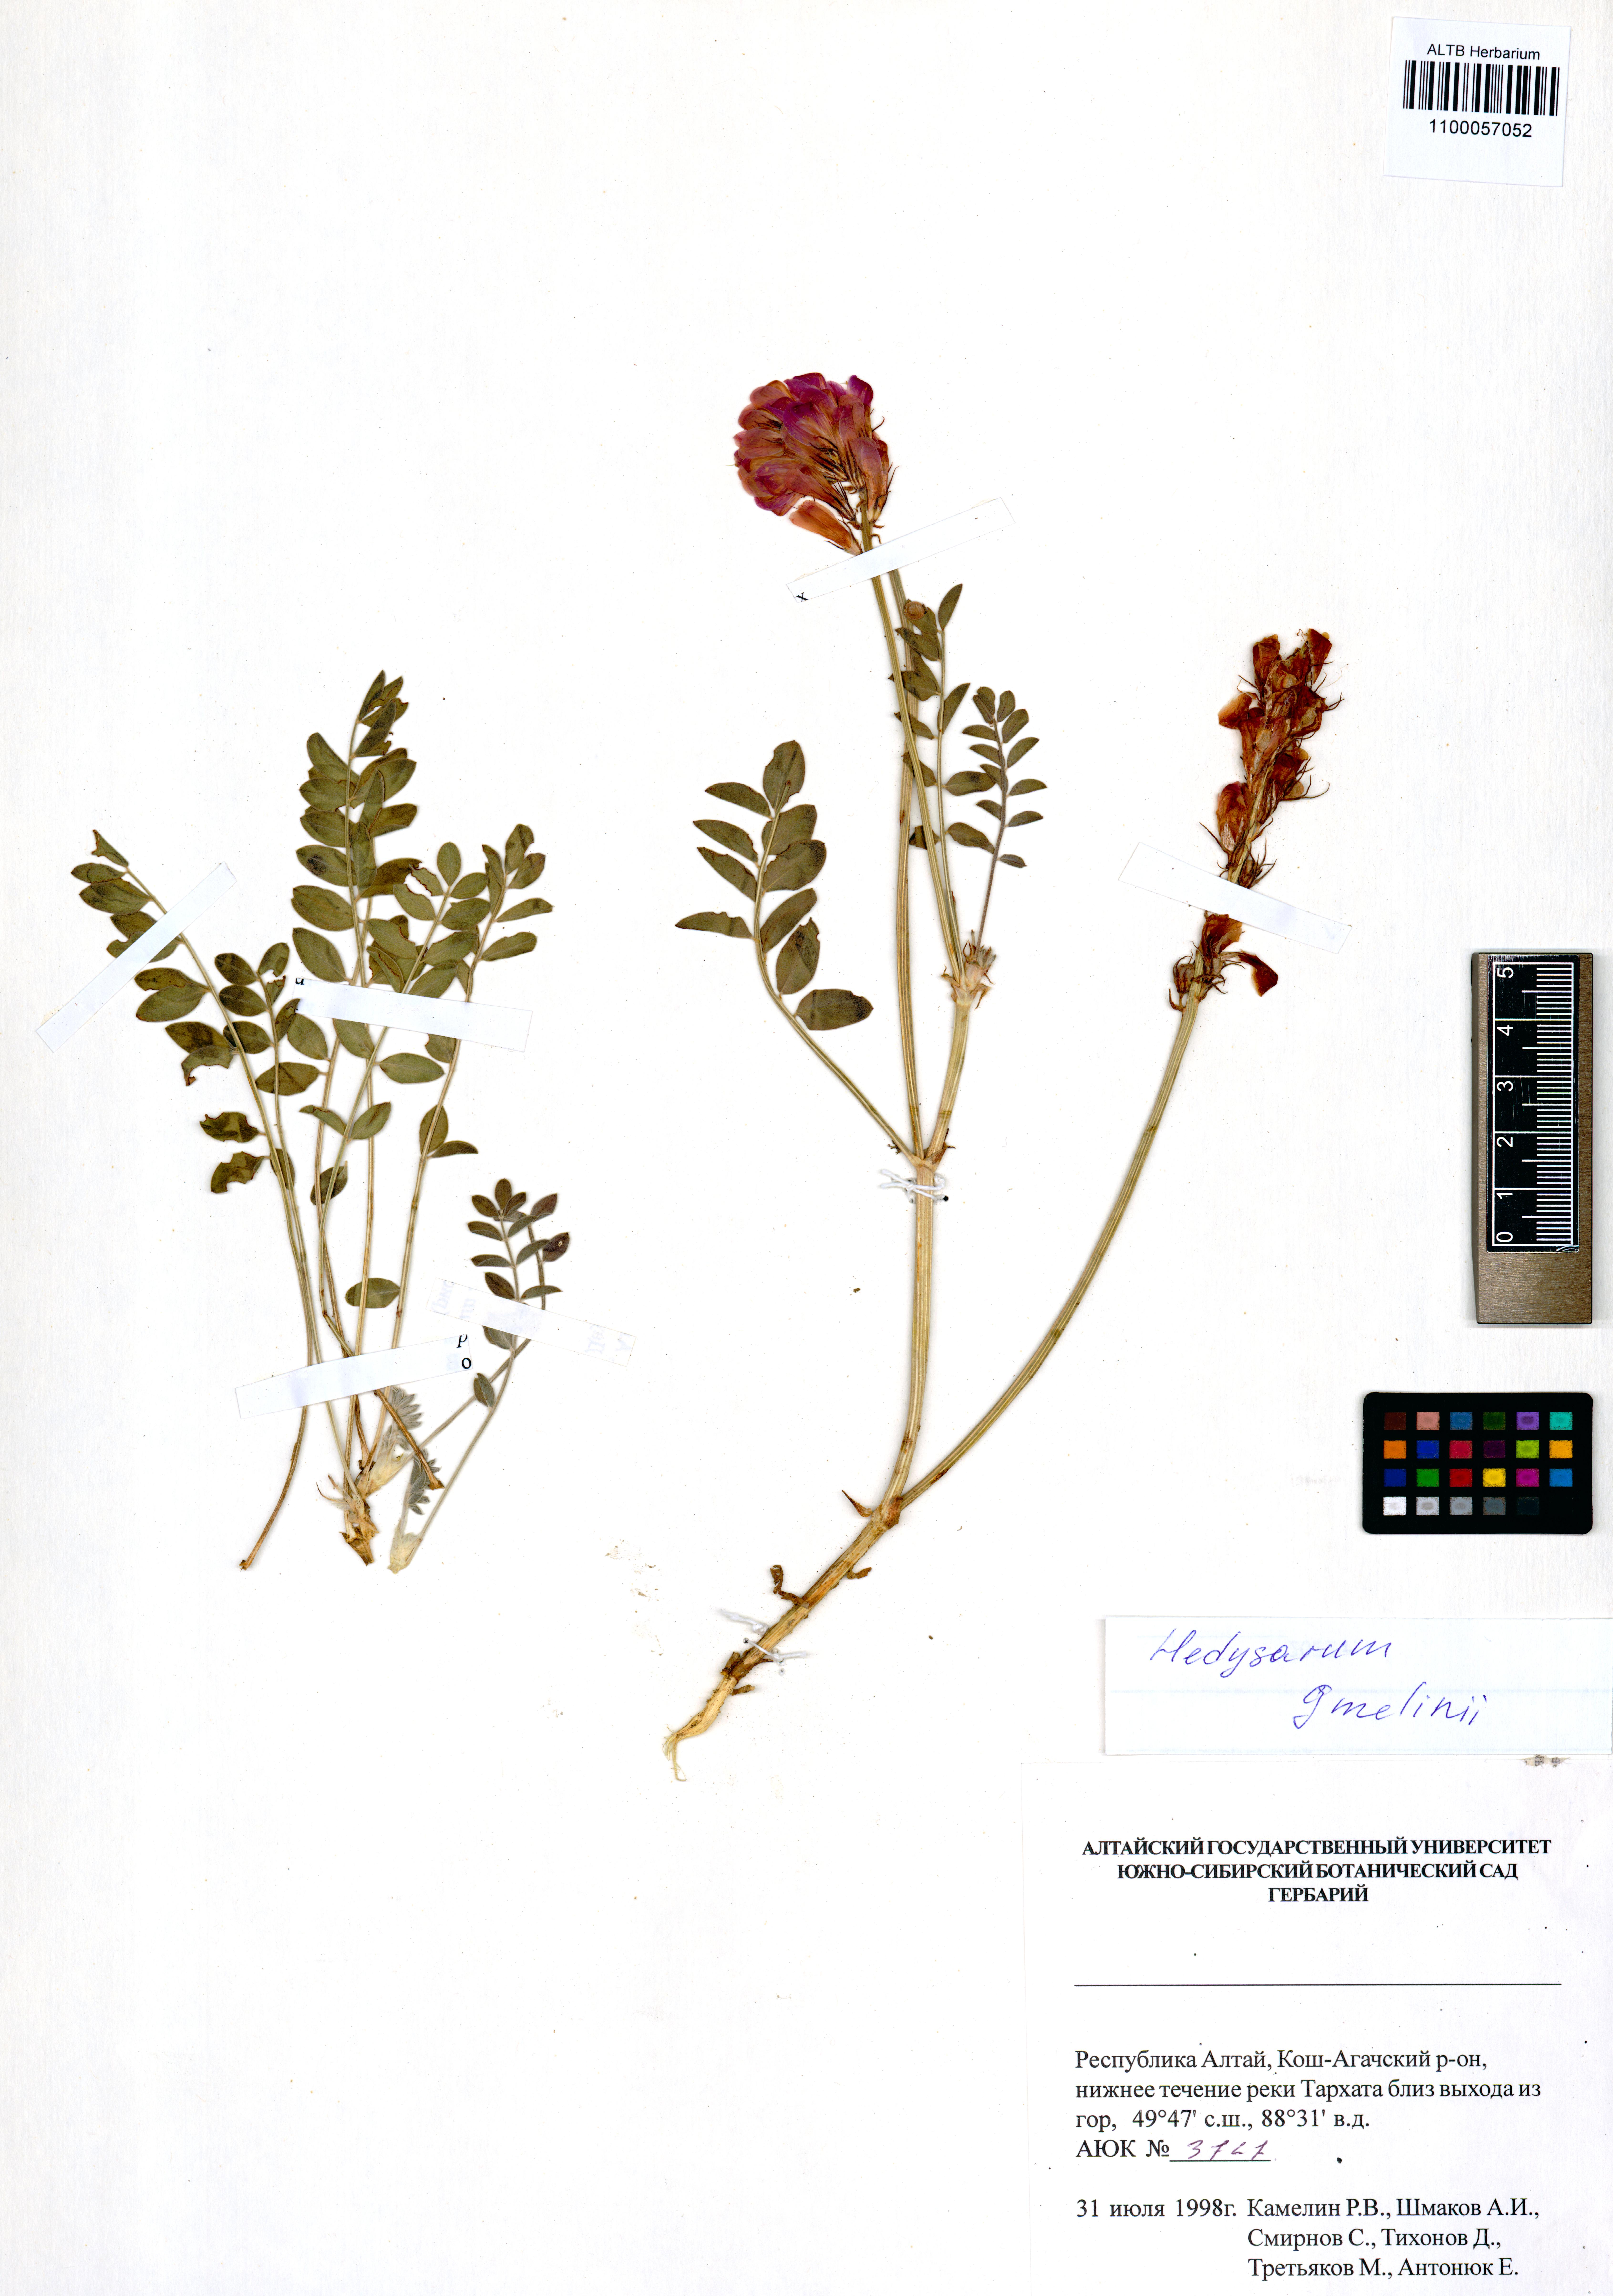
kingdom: Plantae
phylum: Tracheophyta
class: Magnoliopsida
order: Fabales
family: Fabaceae
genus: Hedysarum
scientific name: Hedysarum gmelinii
